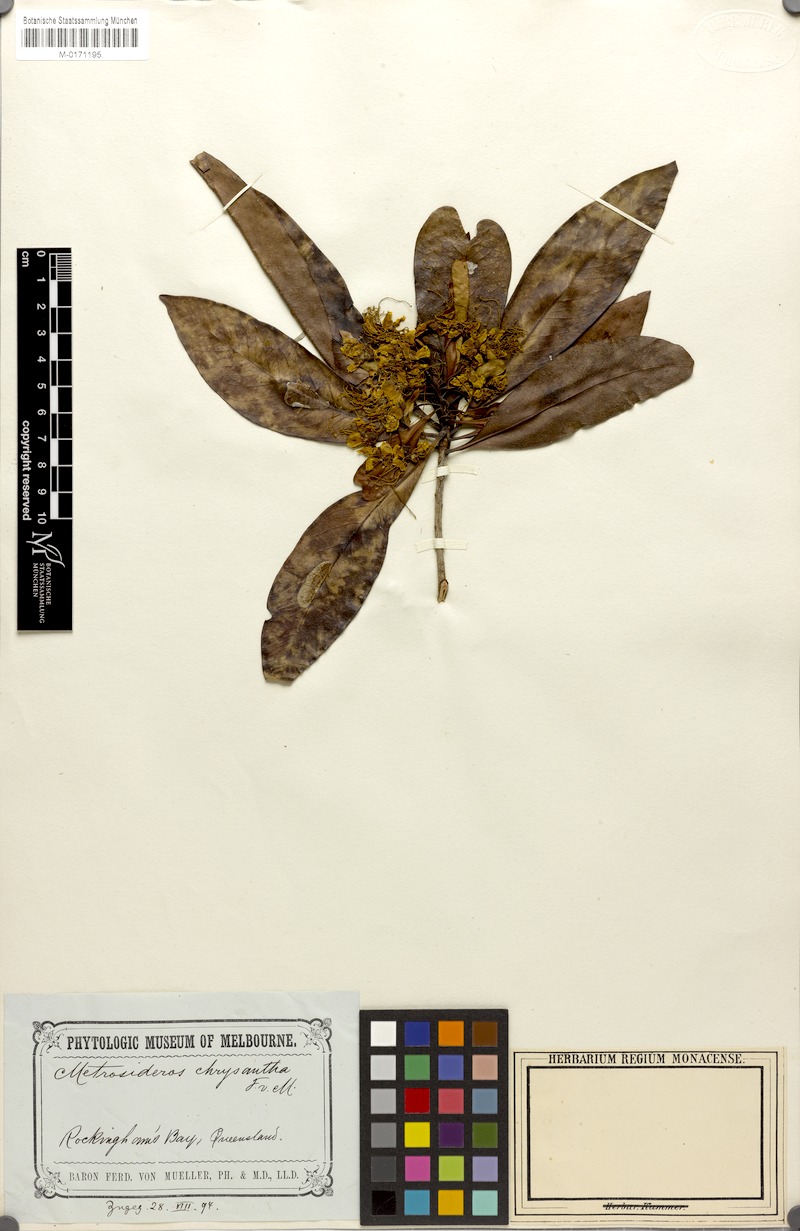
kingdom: Plantae
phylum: Tracheophyta
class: Magnoliopsida
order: Myrtales
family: Myrtaceae
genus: Xanthostemon
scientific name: Xanthostemon chrysanthus
